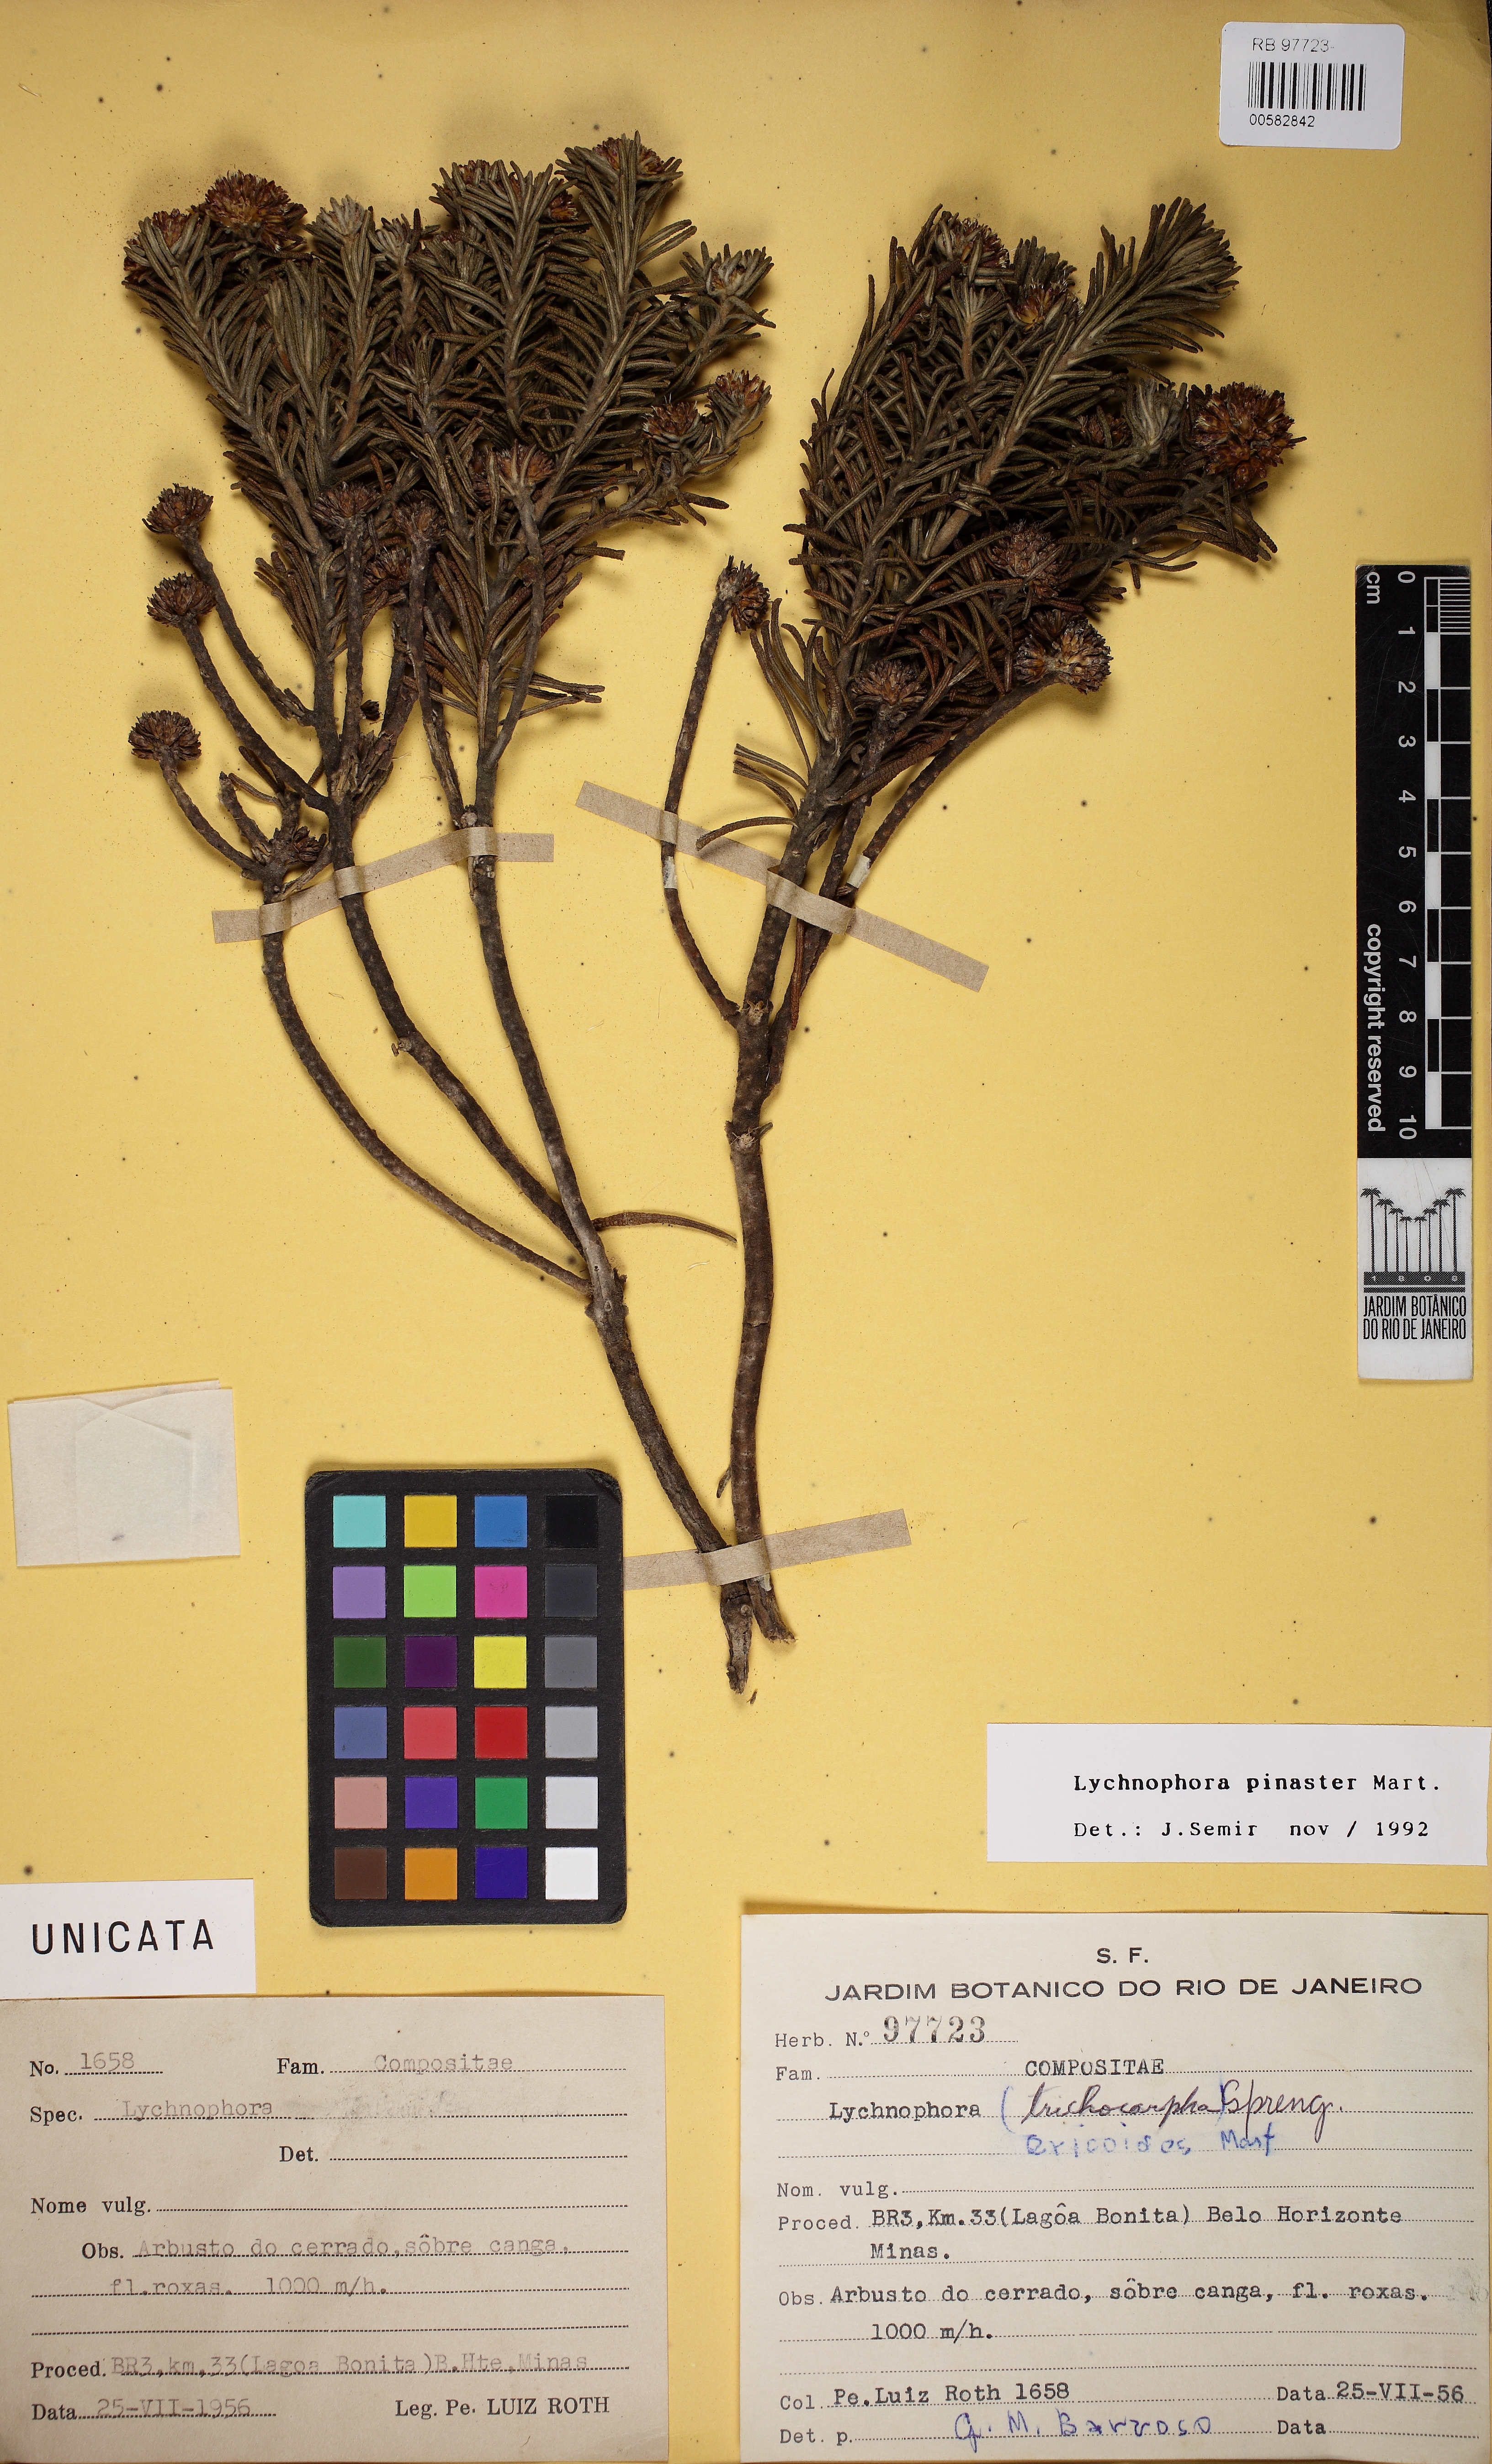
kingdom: Plantae
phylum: Tracheophyta
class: Magnoliopsida
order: Asterales
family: Asteraceae
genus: Lychnophora
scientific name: Lychnophora pinaster
